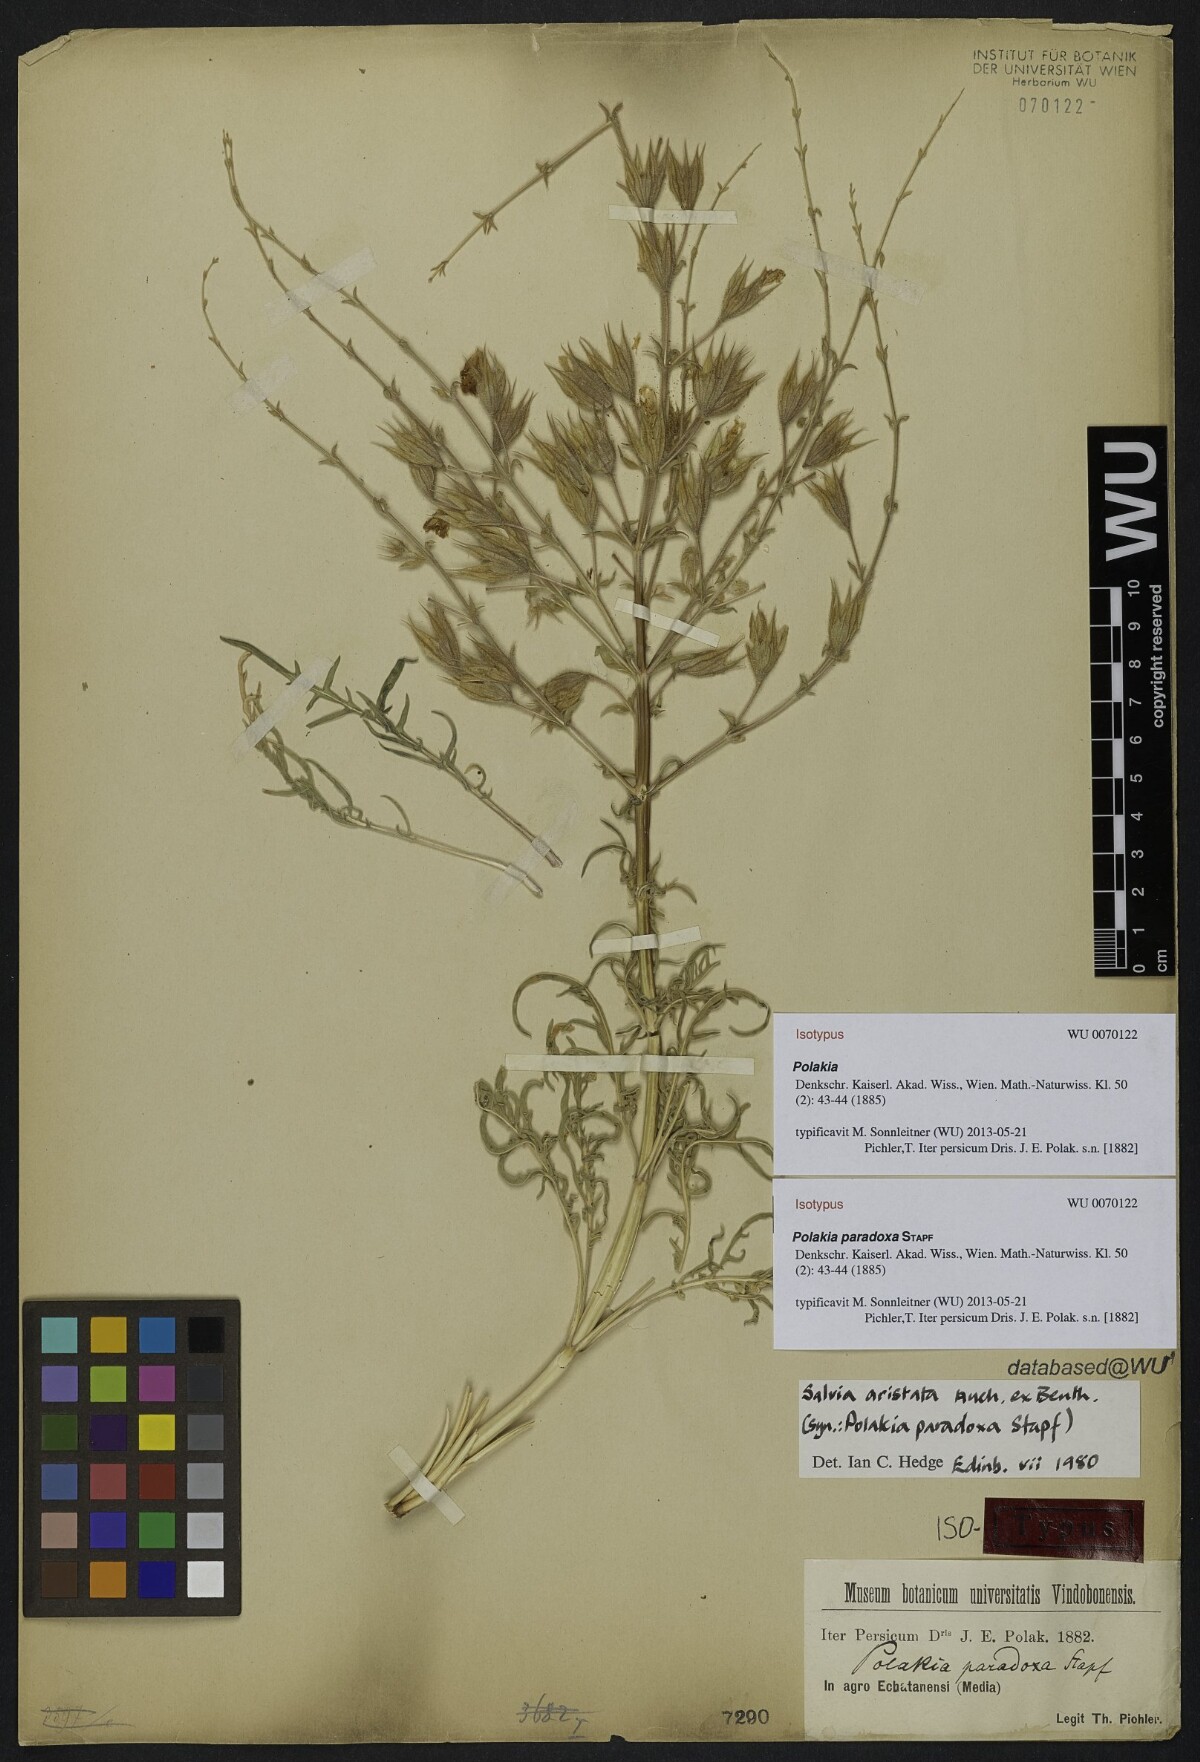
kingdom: Plantae
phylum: Tracheophyta
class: Magnoliopsida
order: Lamiales
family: Lamiaceae
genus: Salvia
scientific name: Salvia aristata
